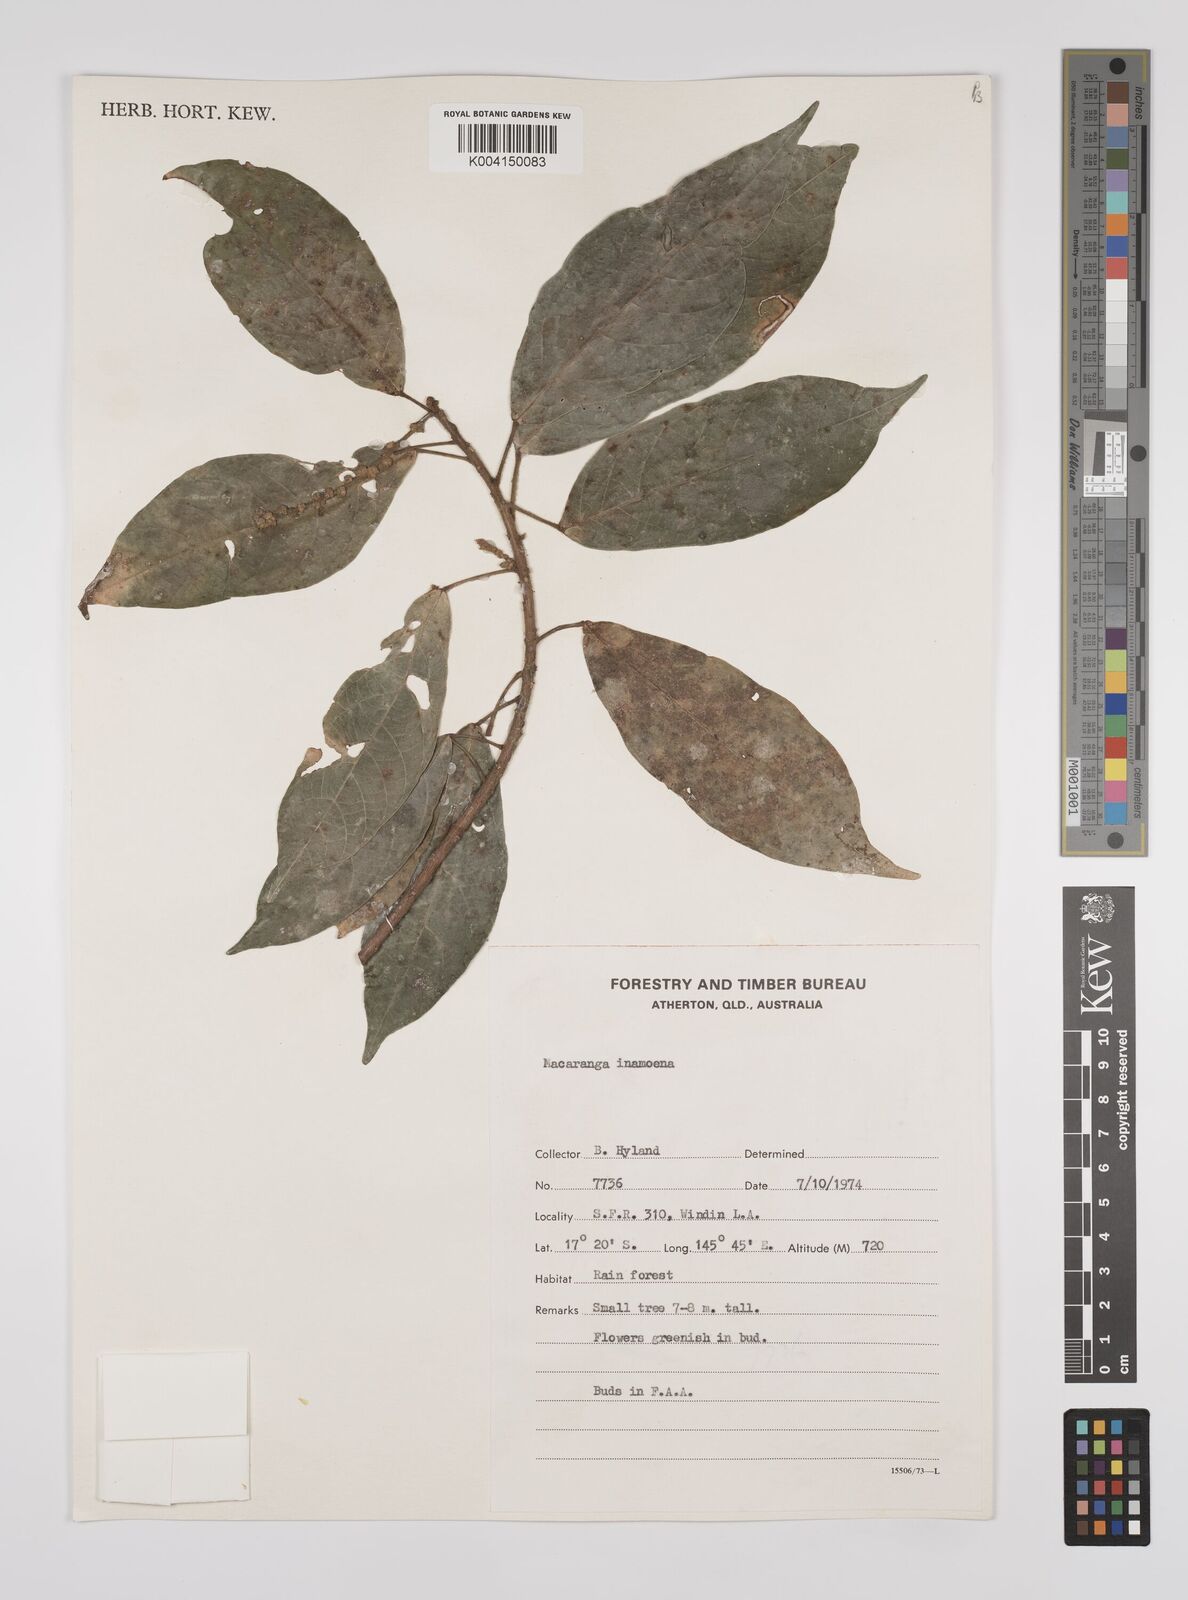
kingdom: Plantae
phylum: Tracheophyta
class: Magnoliopsida
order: Malpighiales
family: Euphorbiaceae
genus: Macaranga
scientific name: Macaranga inamoena
